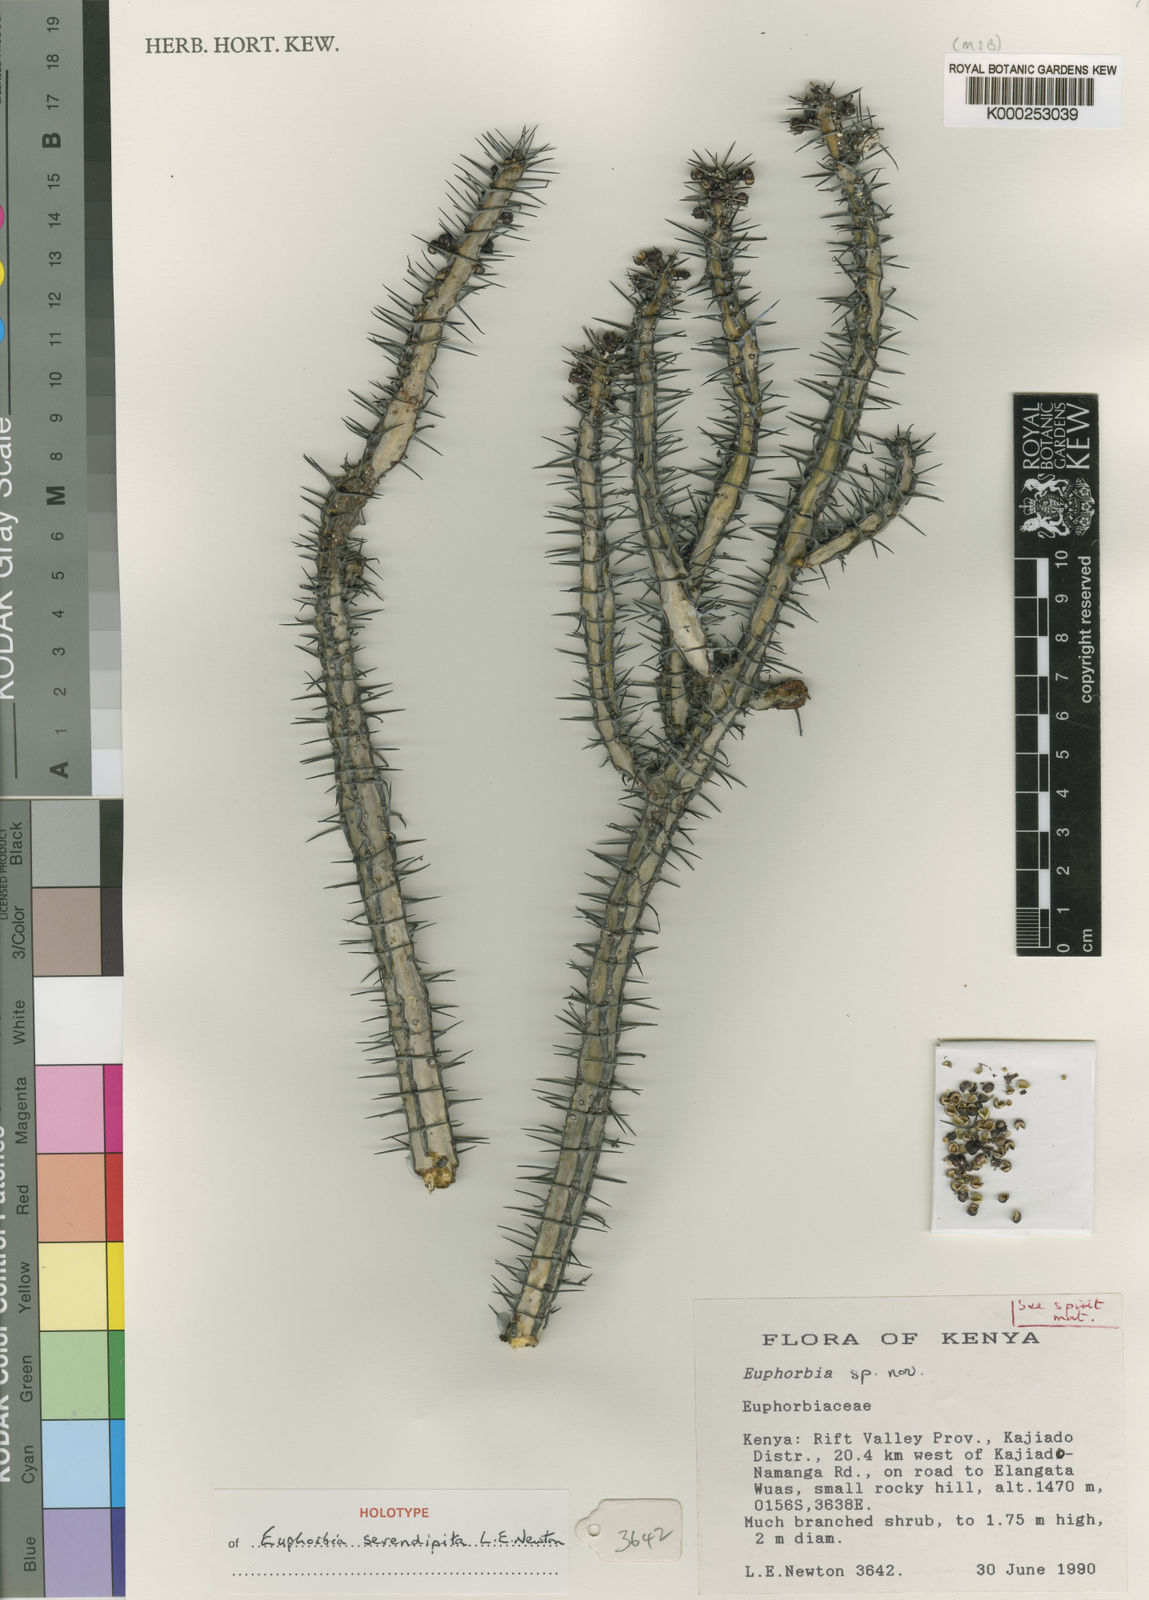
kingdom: Plantae
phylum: Tracheophyta
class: Magnoliopsida
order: Malpighiales
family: Euphorbiaceae
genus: Euphorbia
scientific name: Euphorbia serendipita
